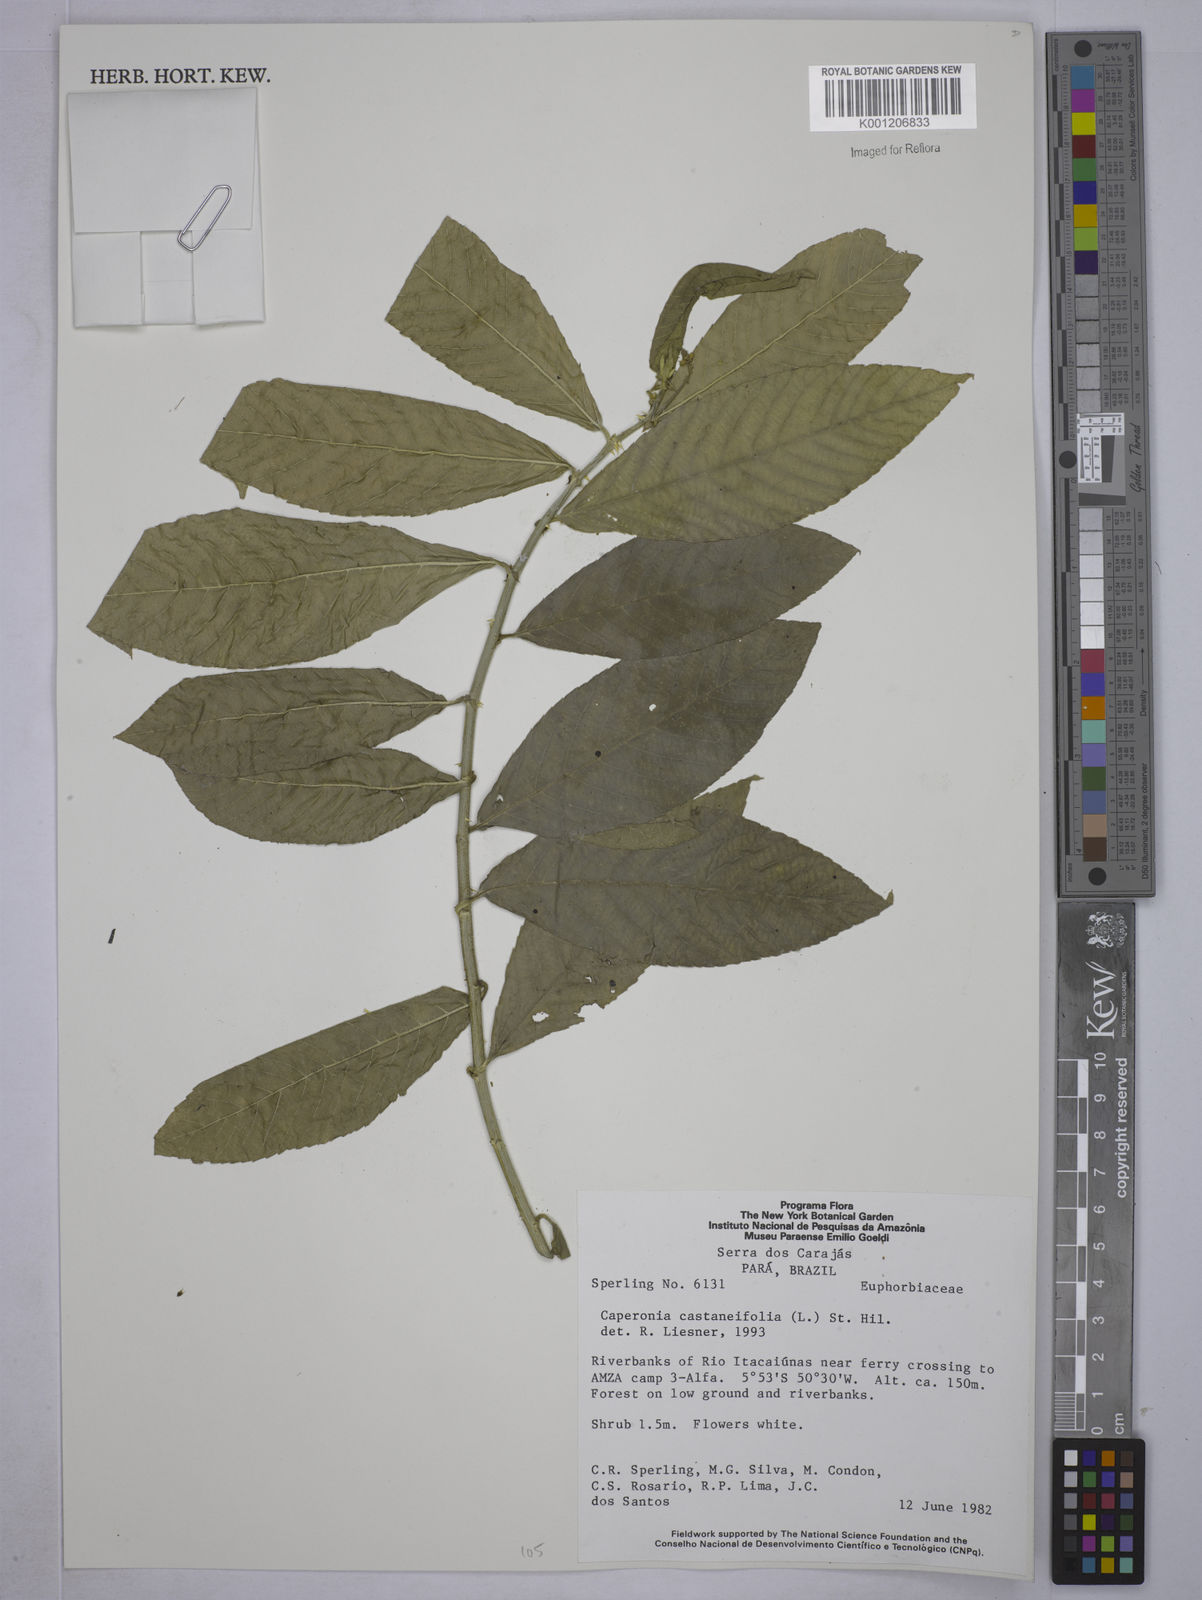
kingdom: Plantae
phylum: Tracheophyta
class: Magnoliopsida
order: Malpighiales
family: Euphorbiaceae
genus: Caperonia
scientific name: Caperonia castaneifolia
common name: Chestnutleaf false croton
